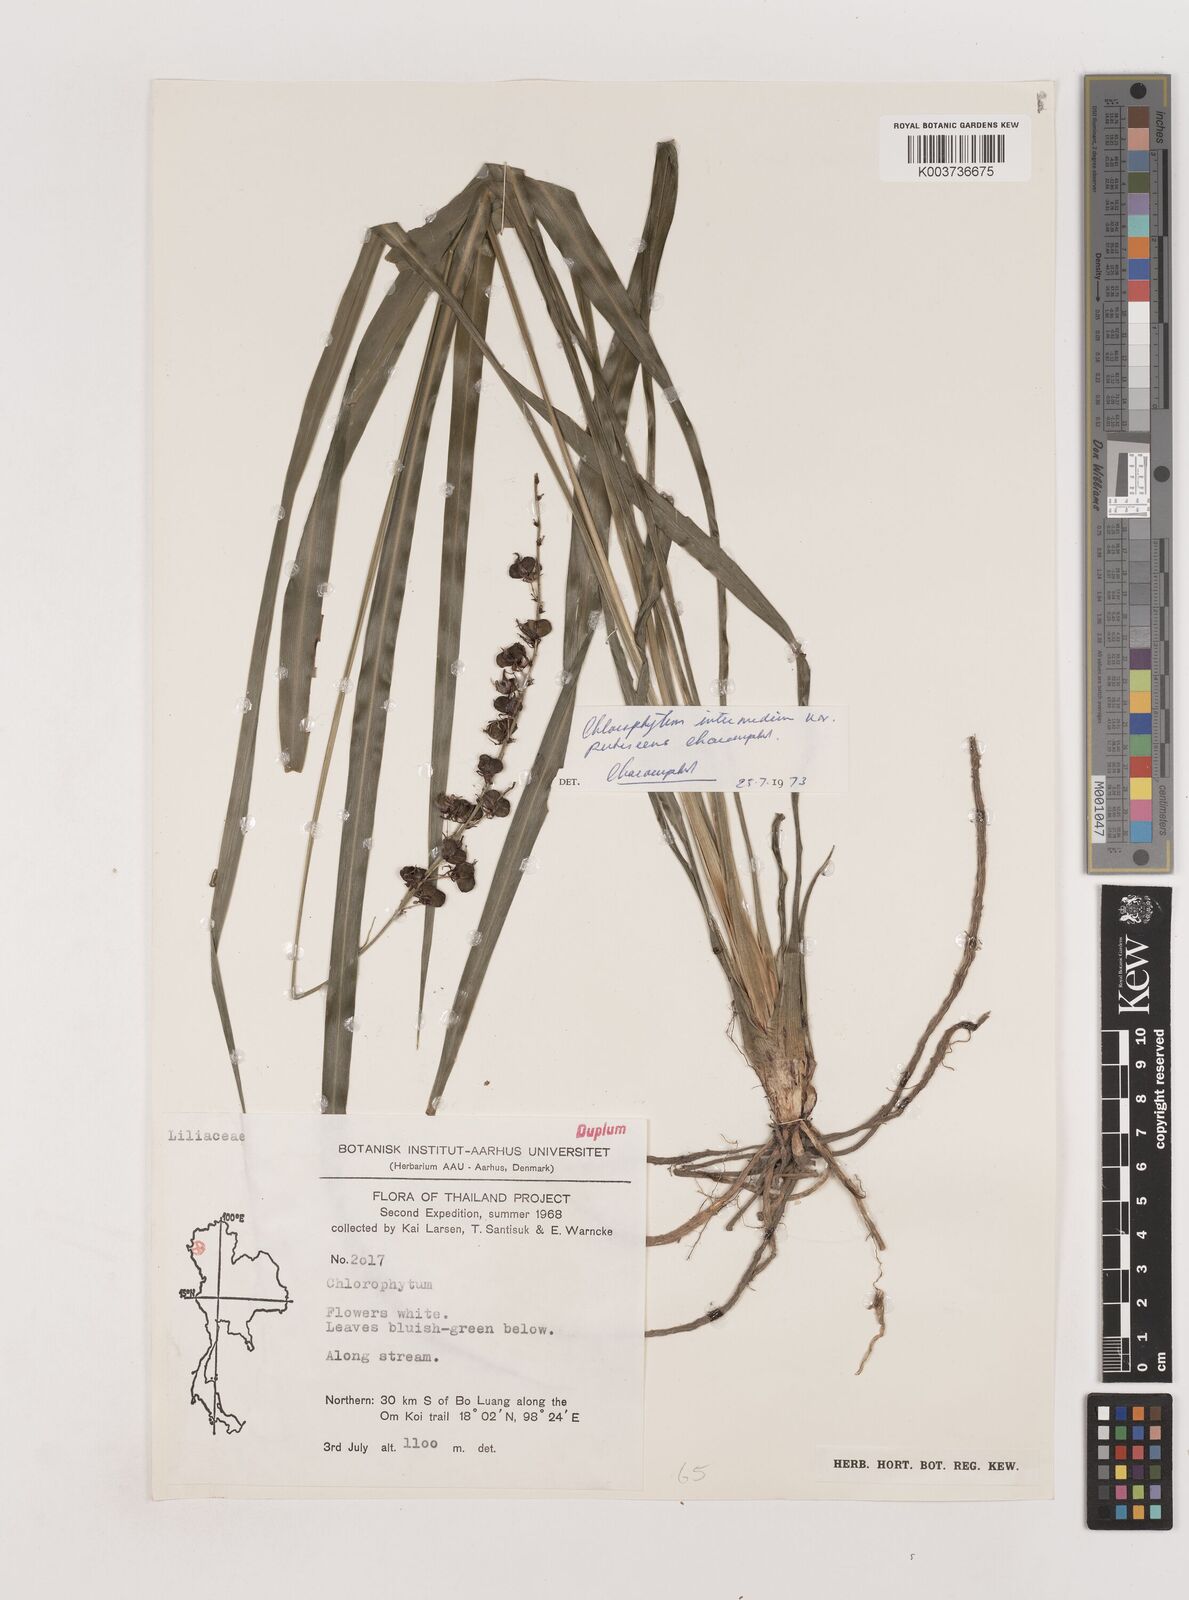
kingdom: Plantae
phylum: Tracheophyta
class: Liliopsida
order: Asparagales
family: Asparagaceae
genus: Chlorophytum
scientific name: Chlorophytum intermedium
